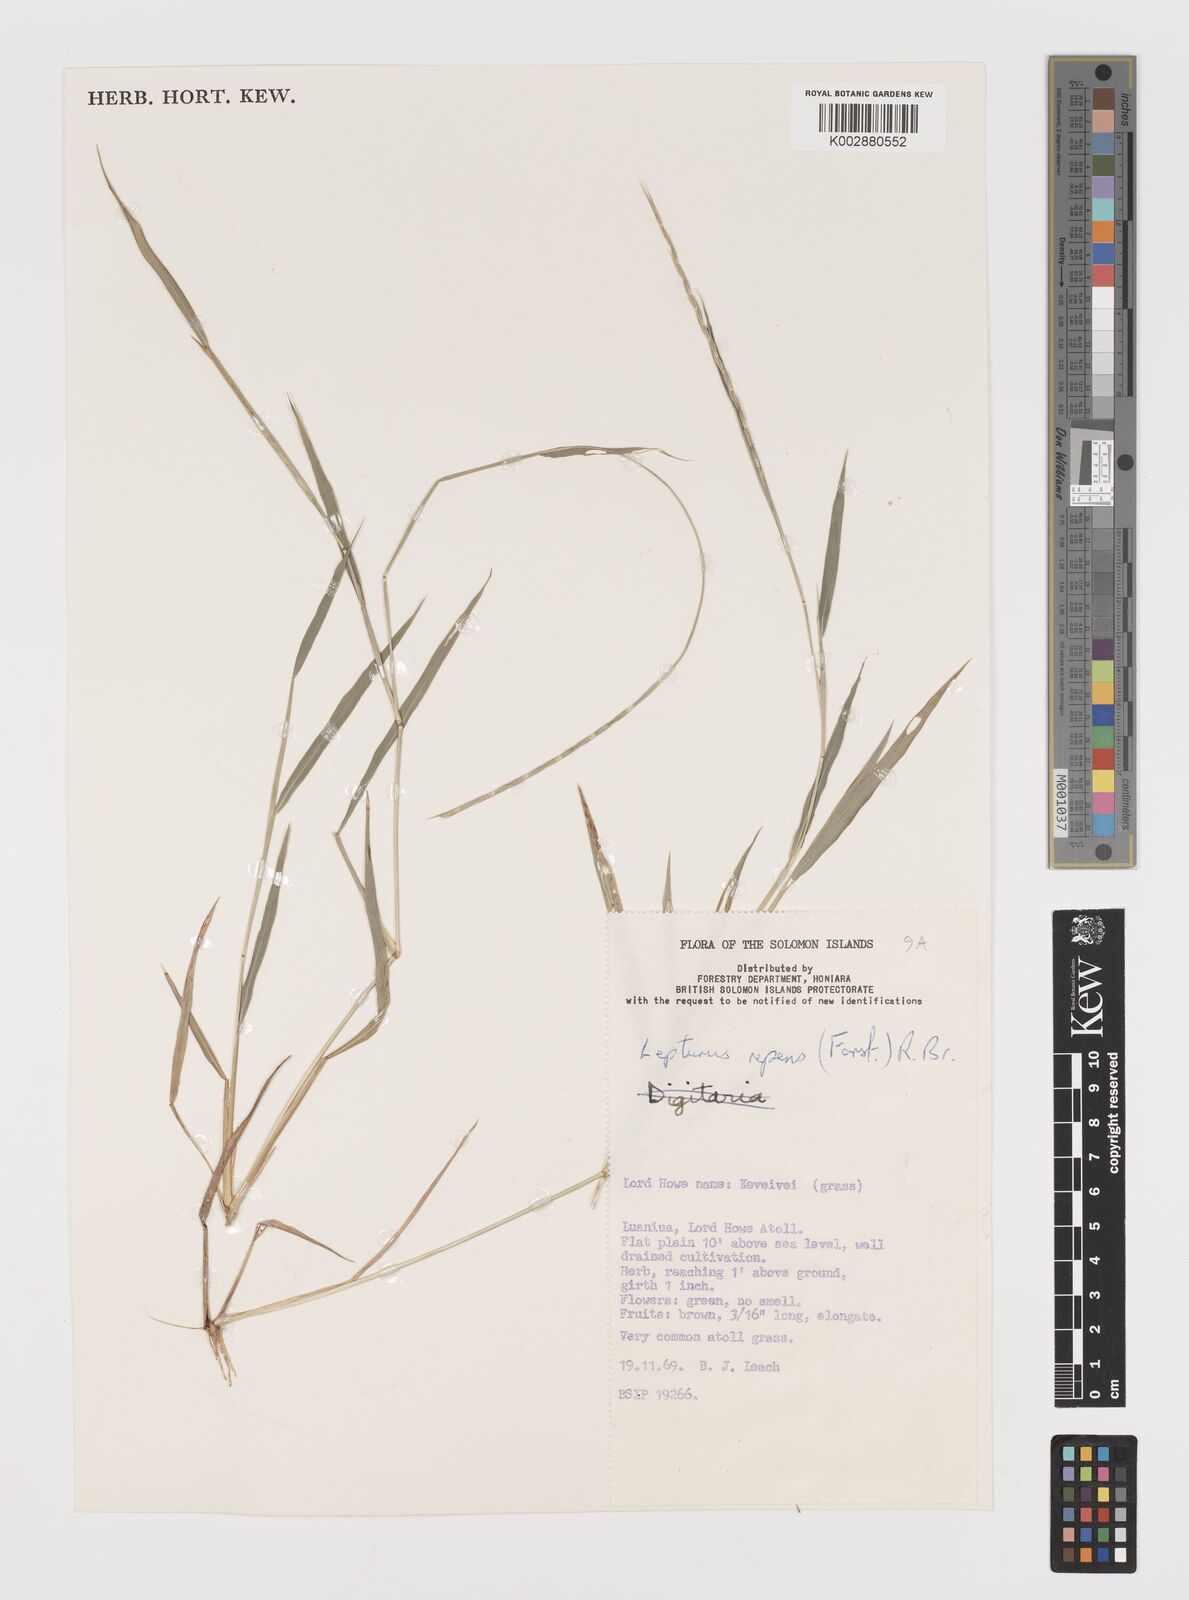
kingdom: Plantae
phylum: Tracheophyta
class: Liliopsida
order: Poales
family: Poaceae
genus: Lepturus
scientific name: Lepturus repens
